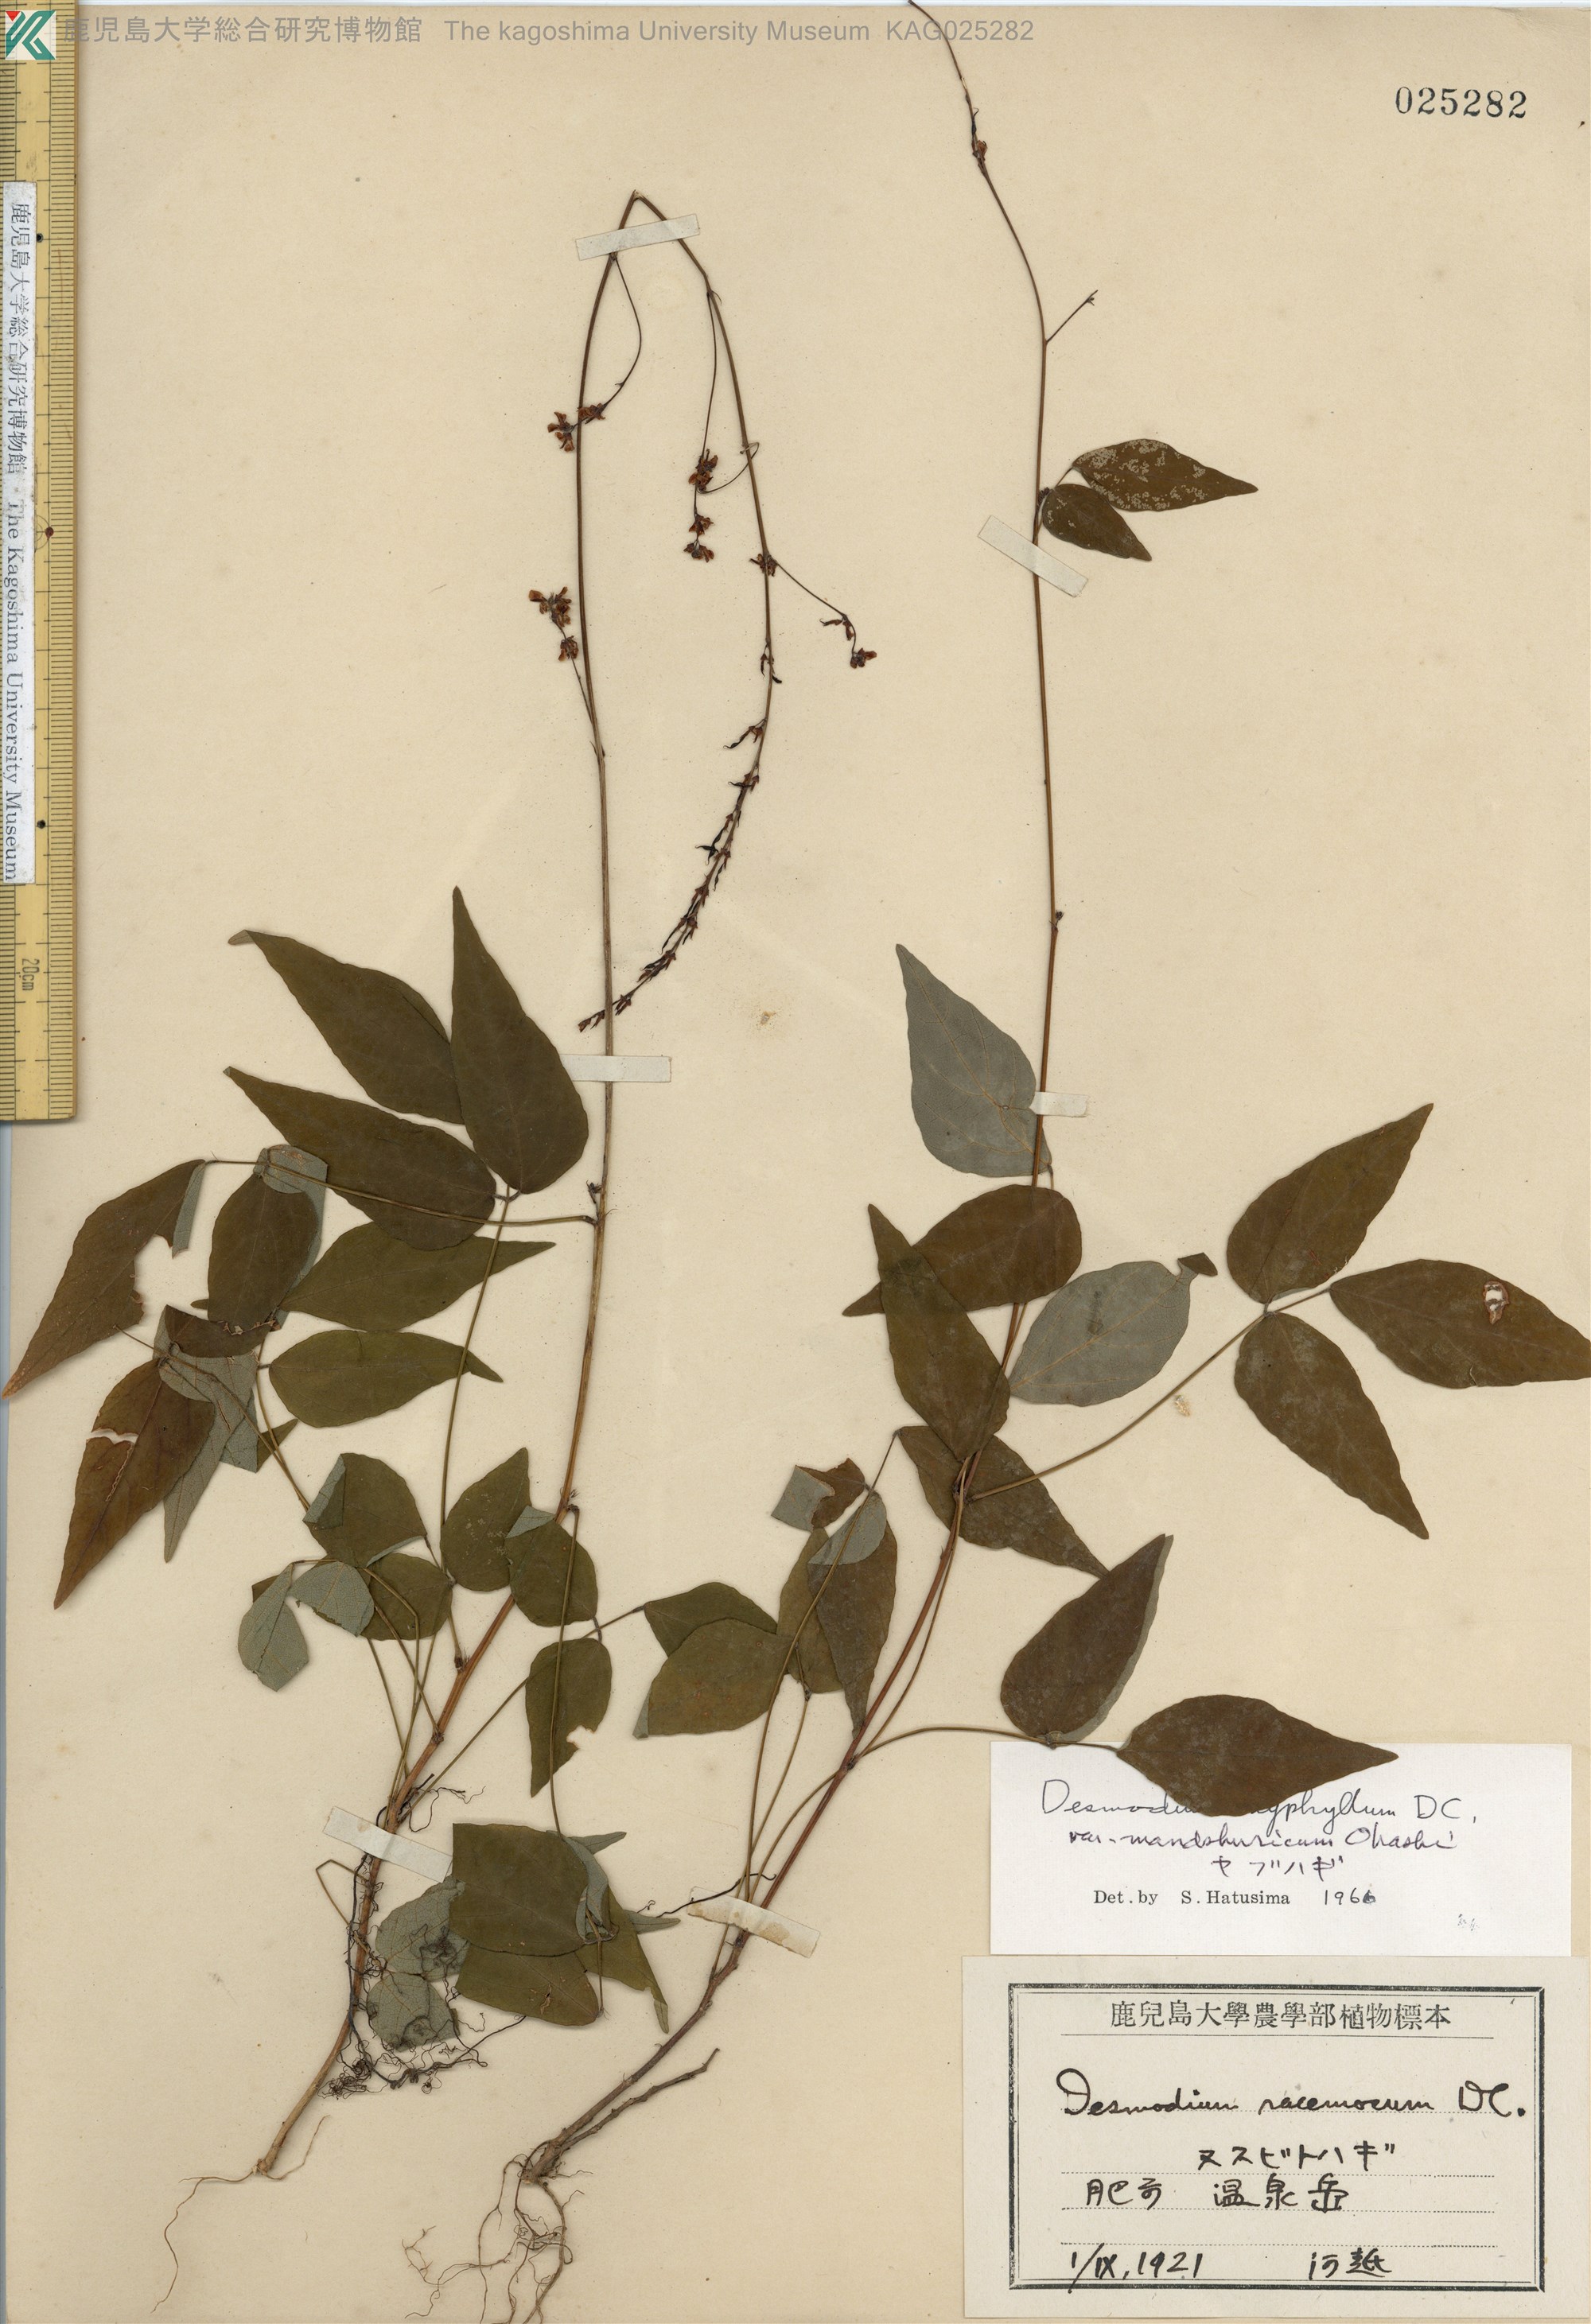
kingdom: Plantae
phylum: Tracheophyta
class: Magnoliopsida
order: Fabales
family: Fabaceae
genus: Hylodesmum
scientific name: Hylodesmum podocarpum
